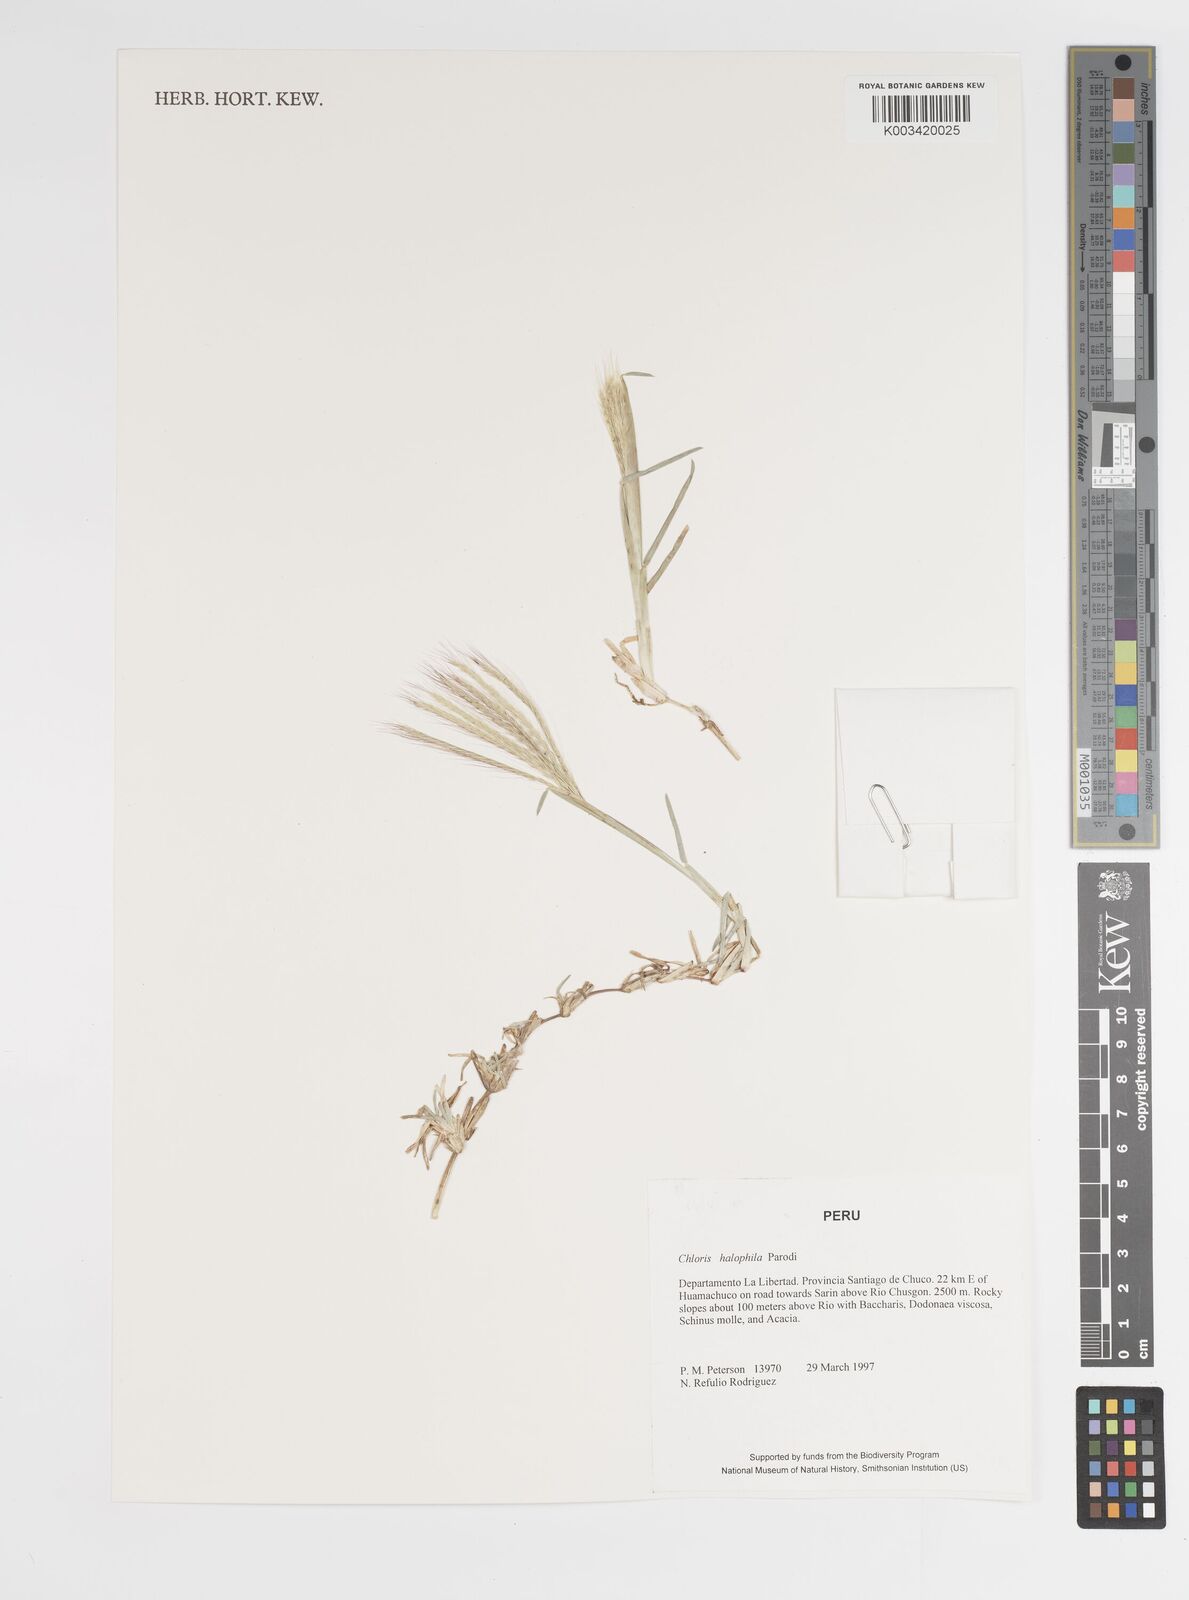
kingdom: Plantae
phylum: Tracheophyta
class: Liliopsida
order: Poales
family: Poaceae
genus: Chloris
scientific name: Chloris halophila
